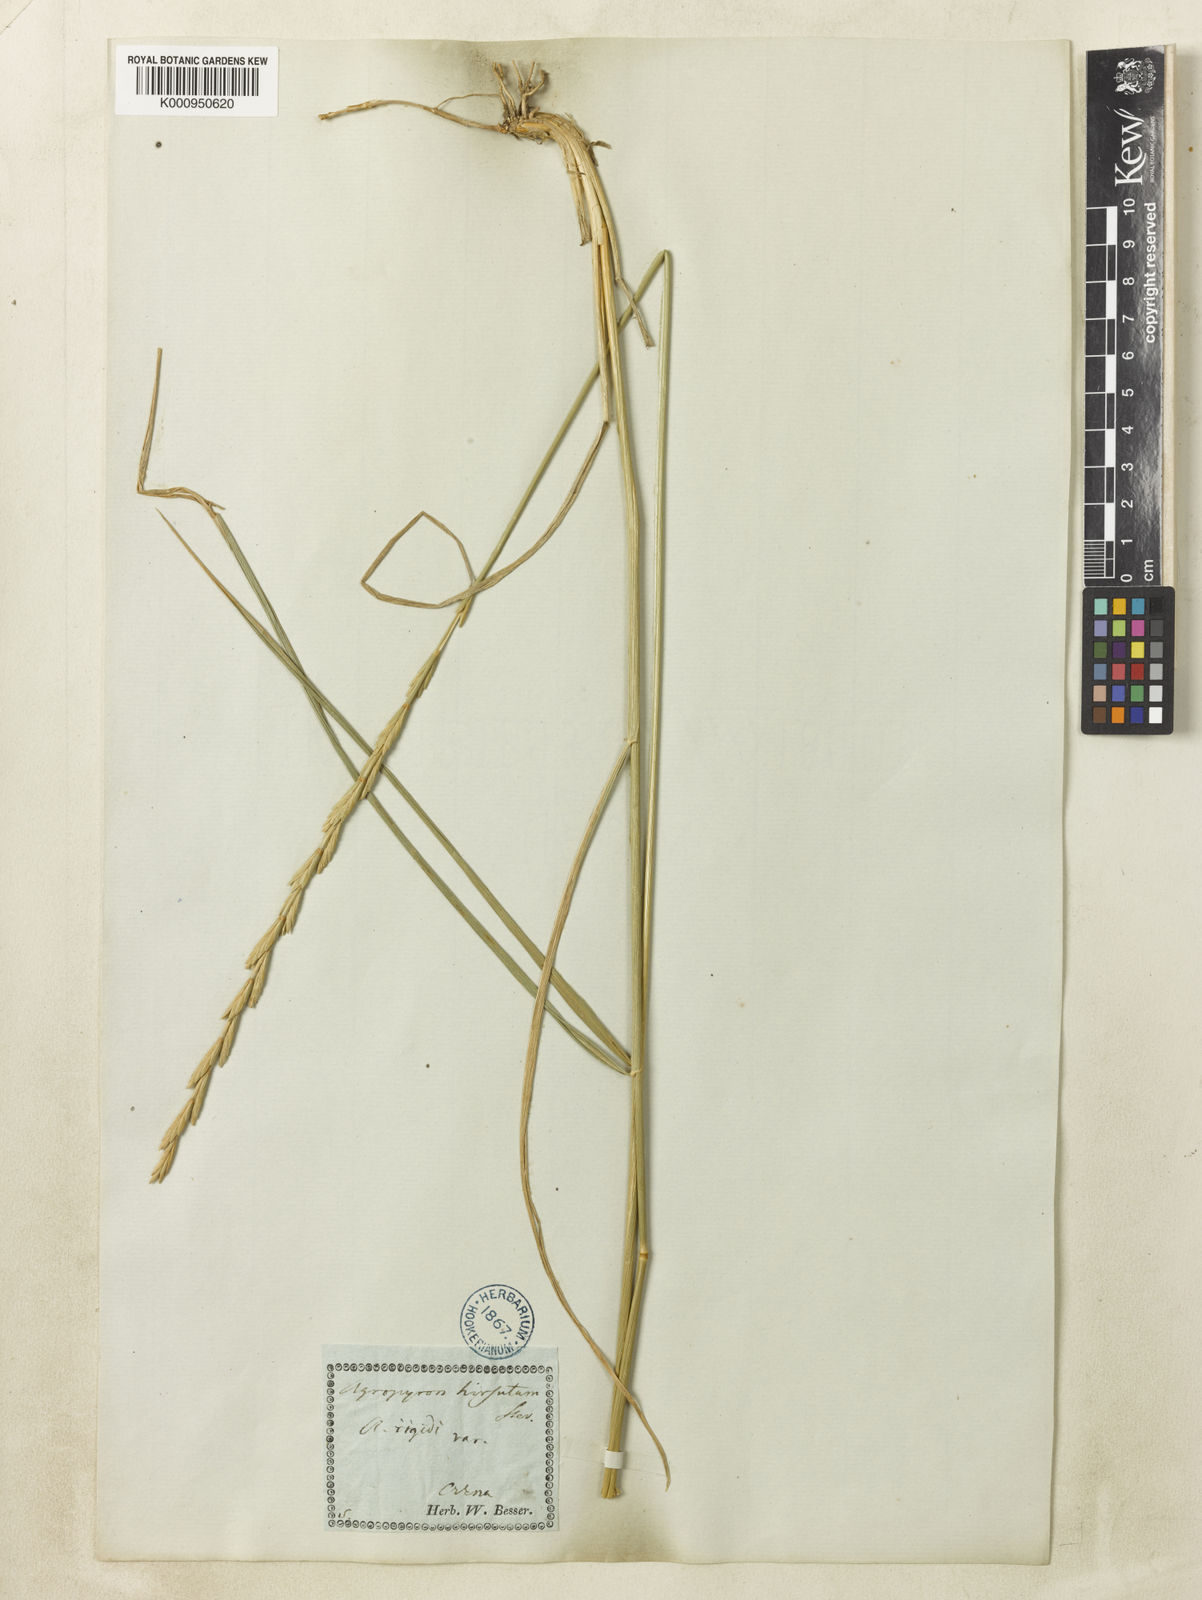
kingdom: Plantae
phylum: Tracheophyta
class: Liliopsida
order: Poales
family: Poaceae
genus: Agropyron
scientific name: Agropyron dasyanthum
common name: Edge flowered crested wheatgrass
